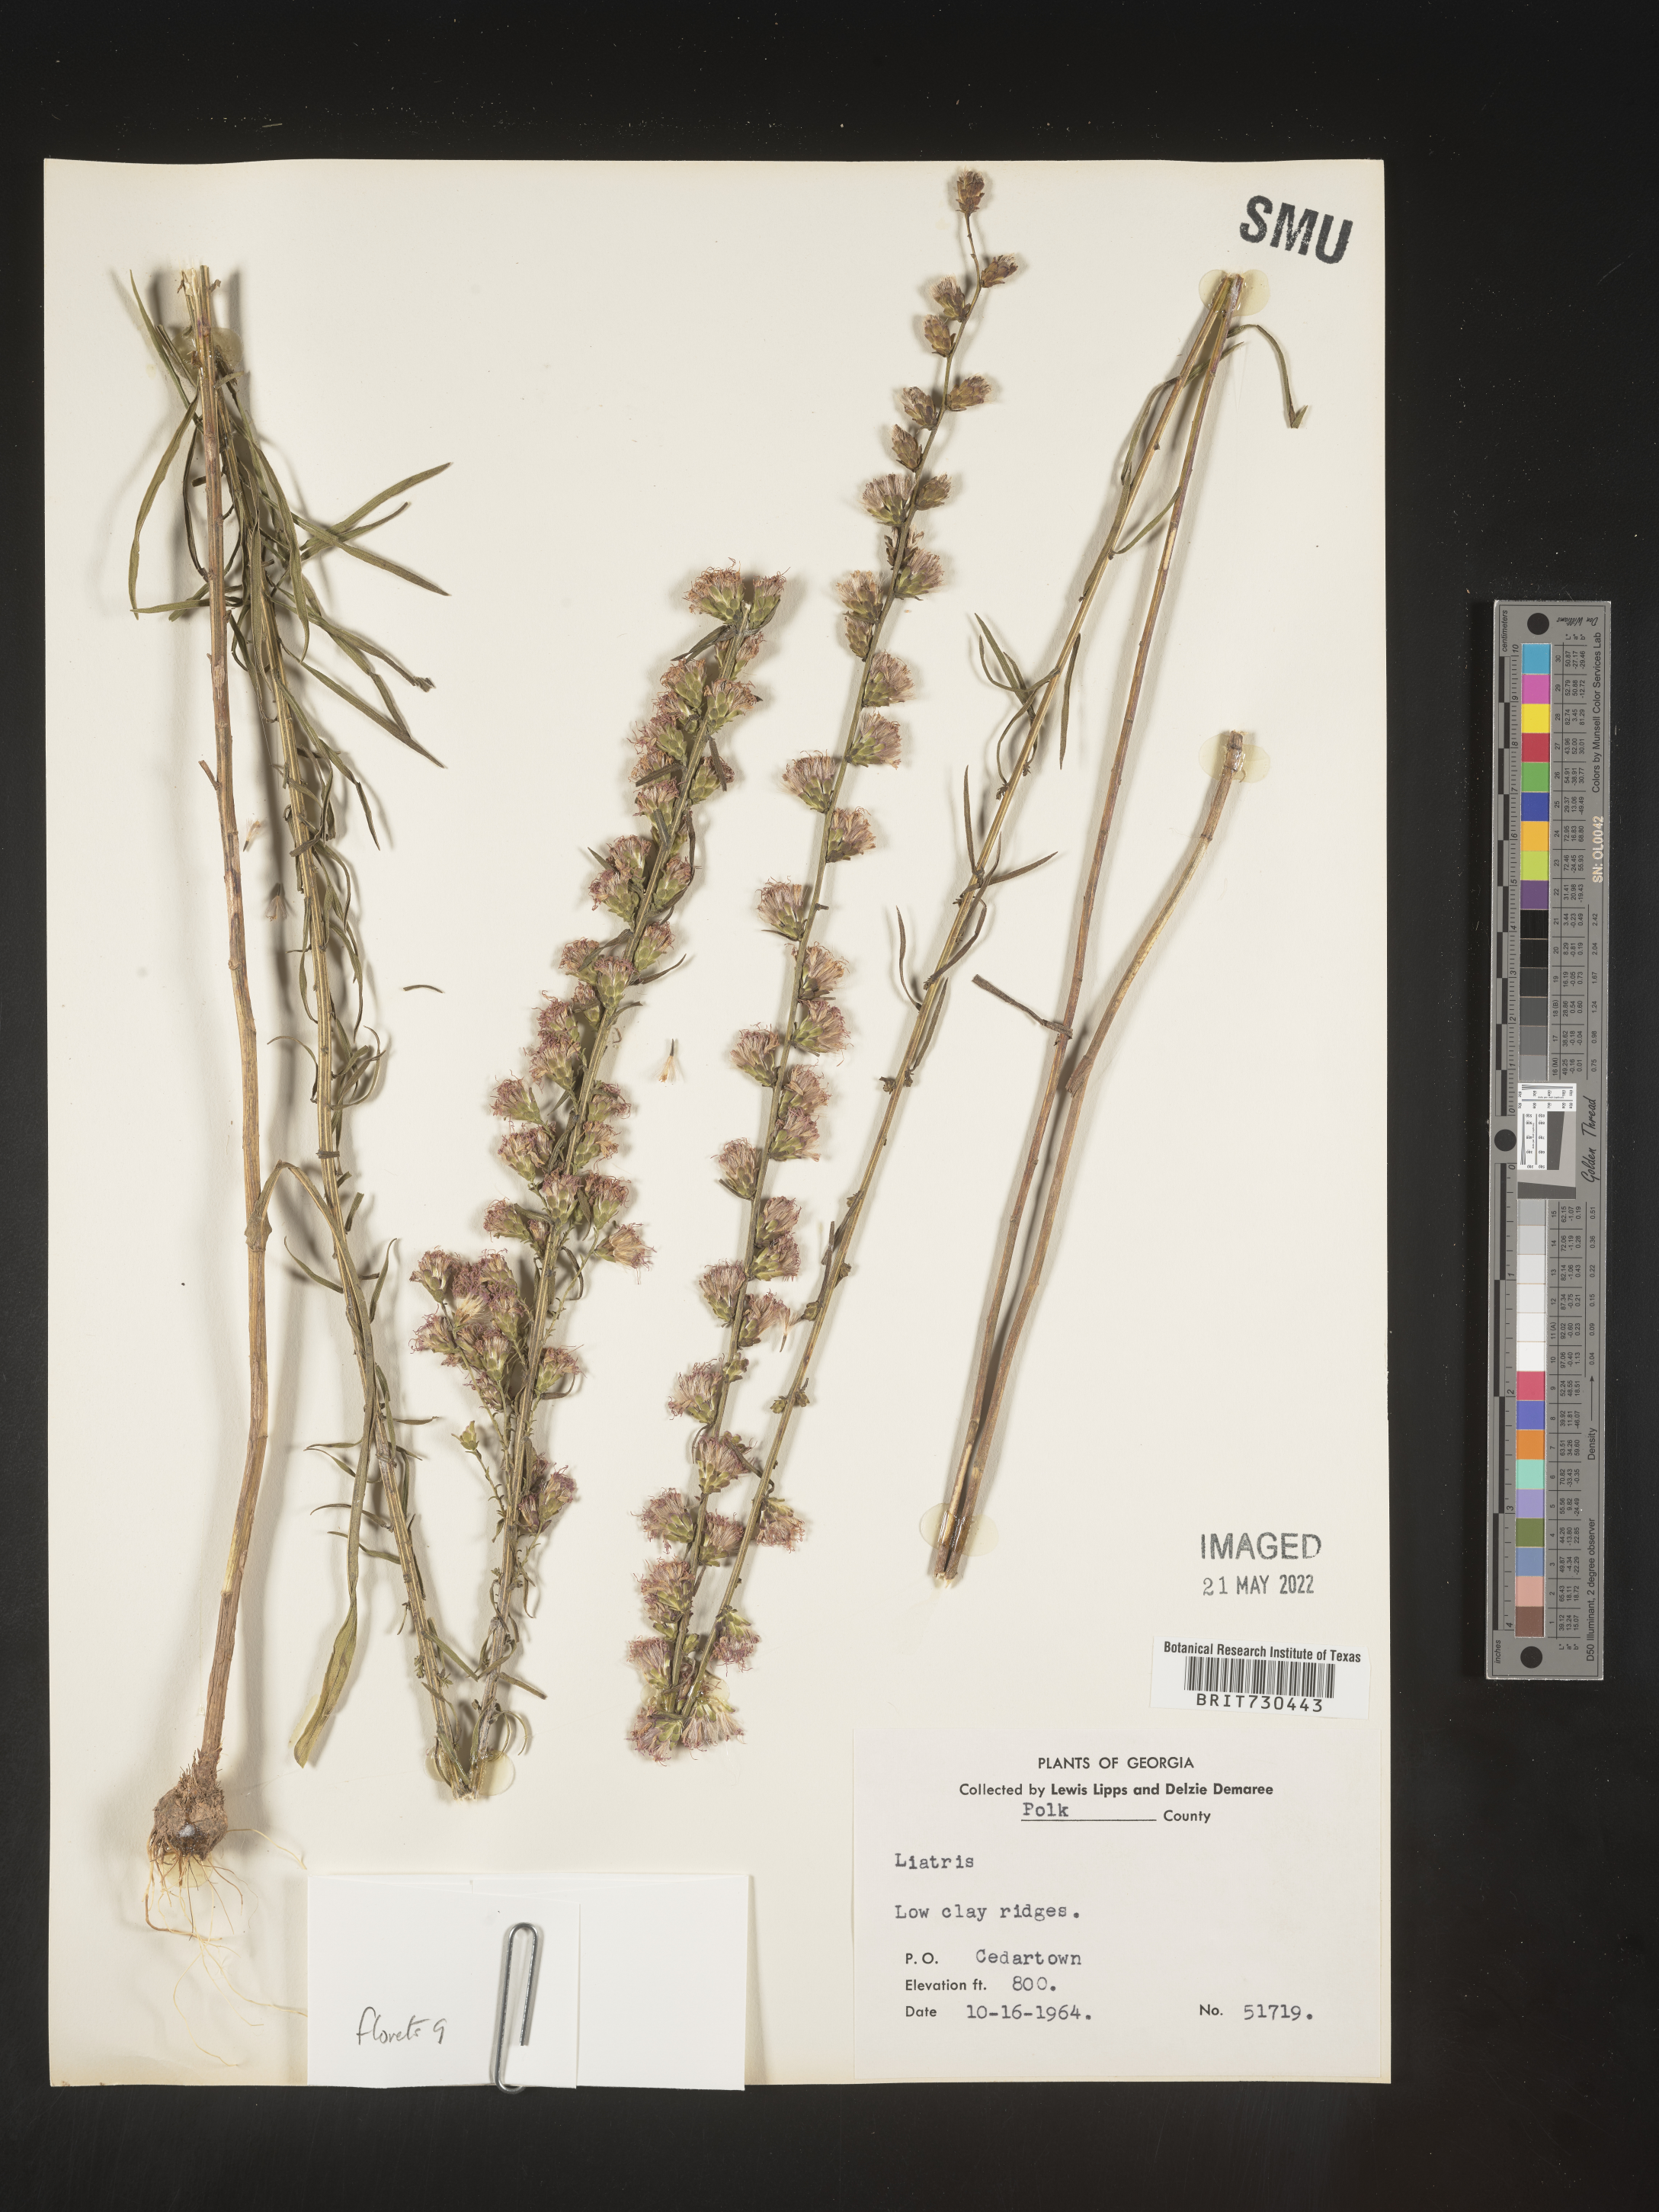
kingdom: Plantae
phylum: Tracheophyta
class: Magnoliopsida
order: Asterales
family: Asteraceae
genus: Liatris
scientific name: Liatris elegantula
